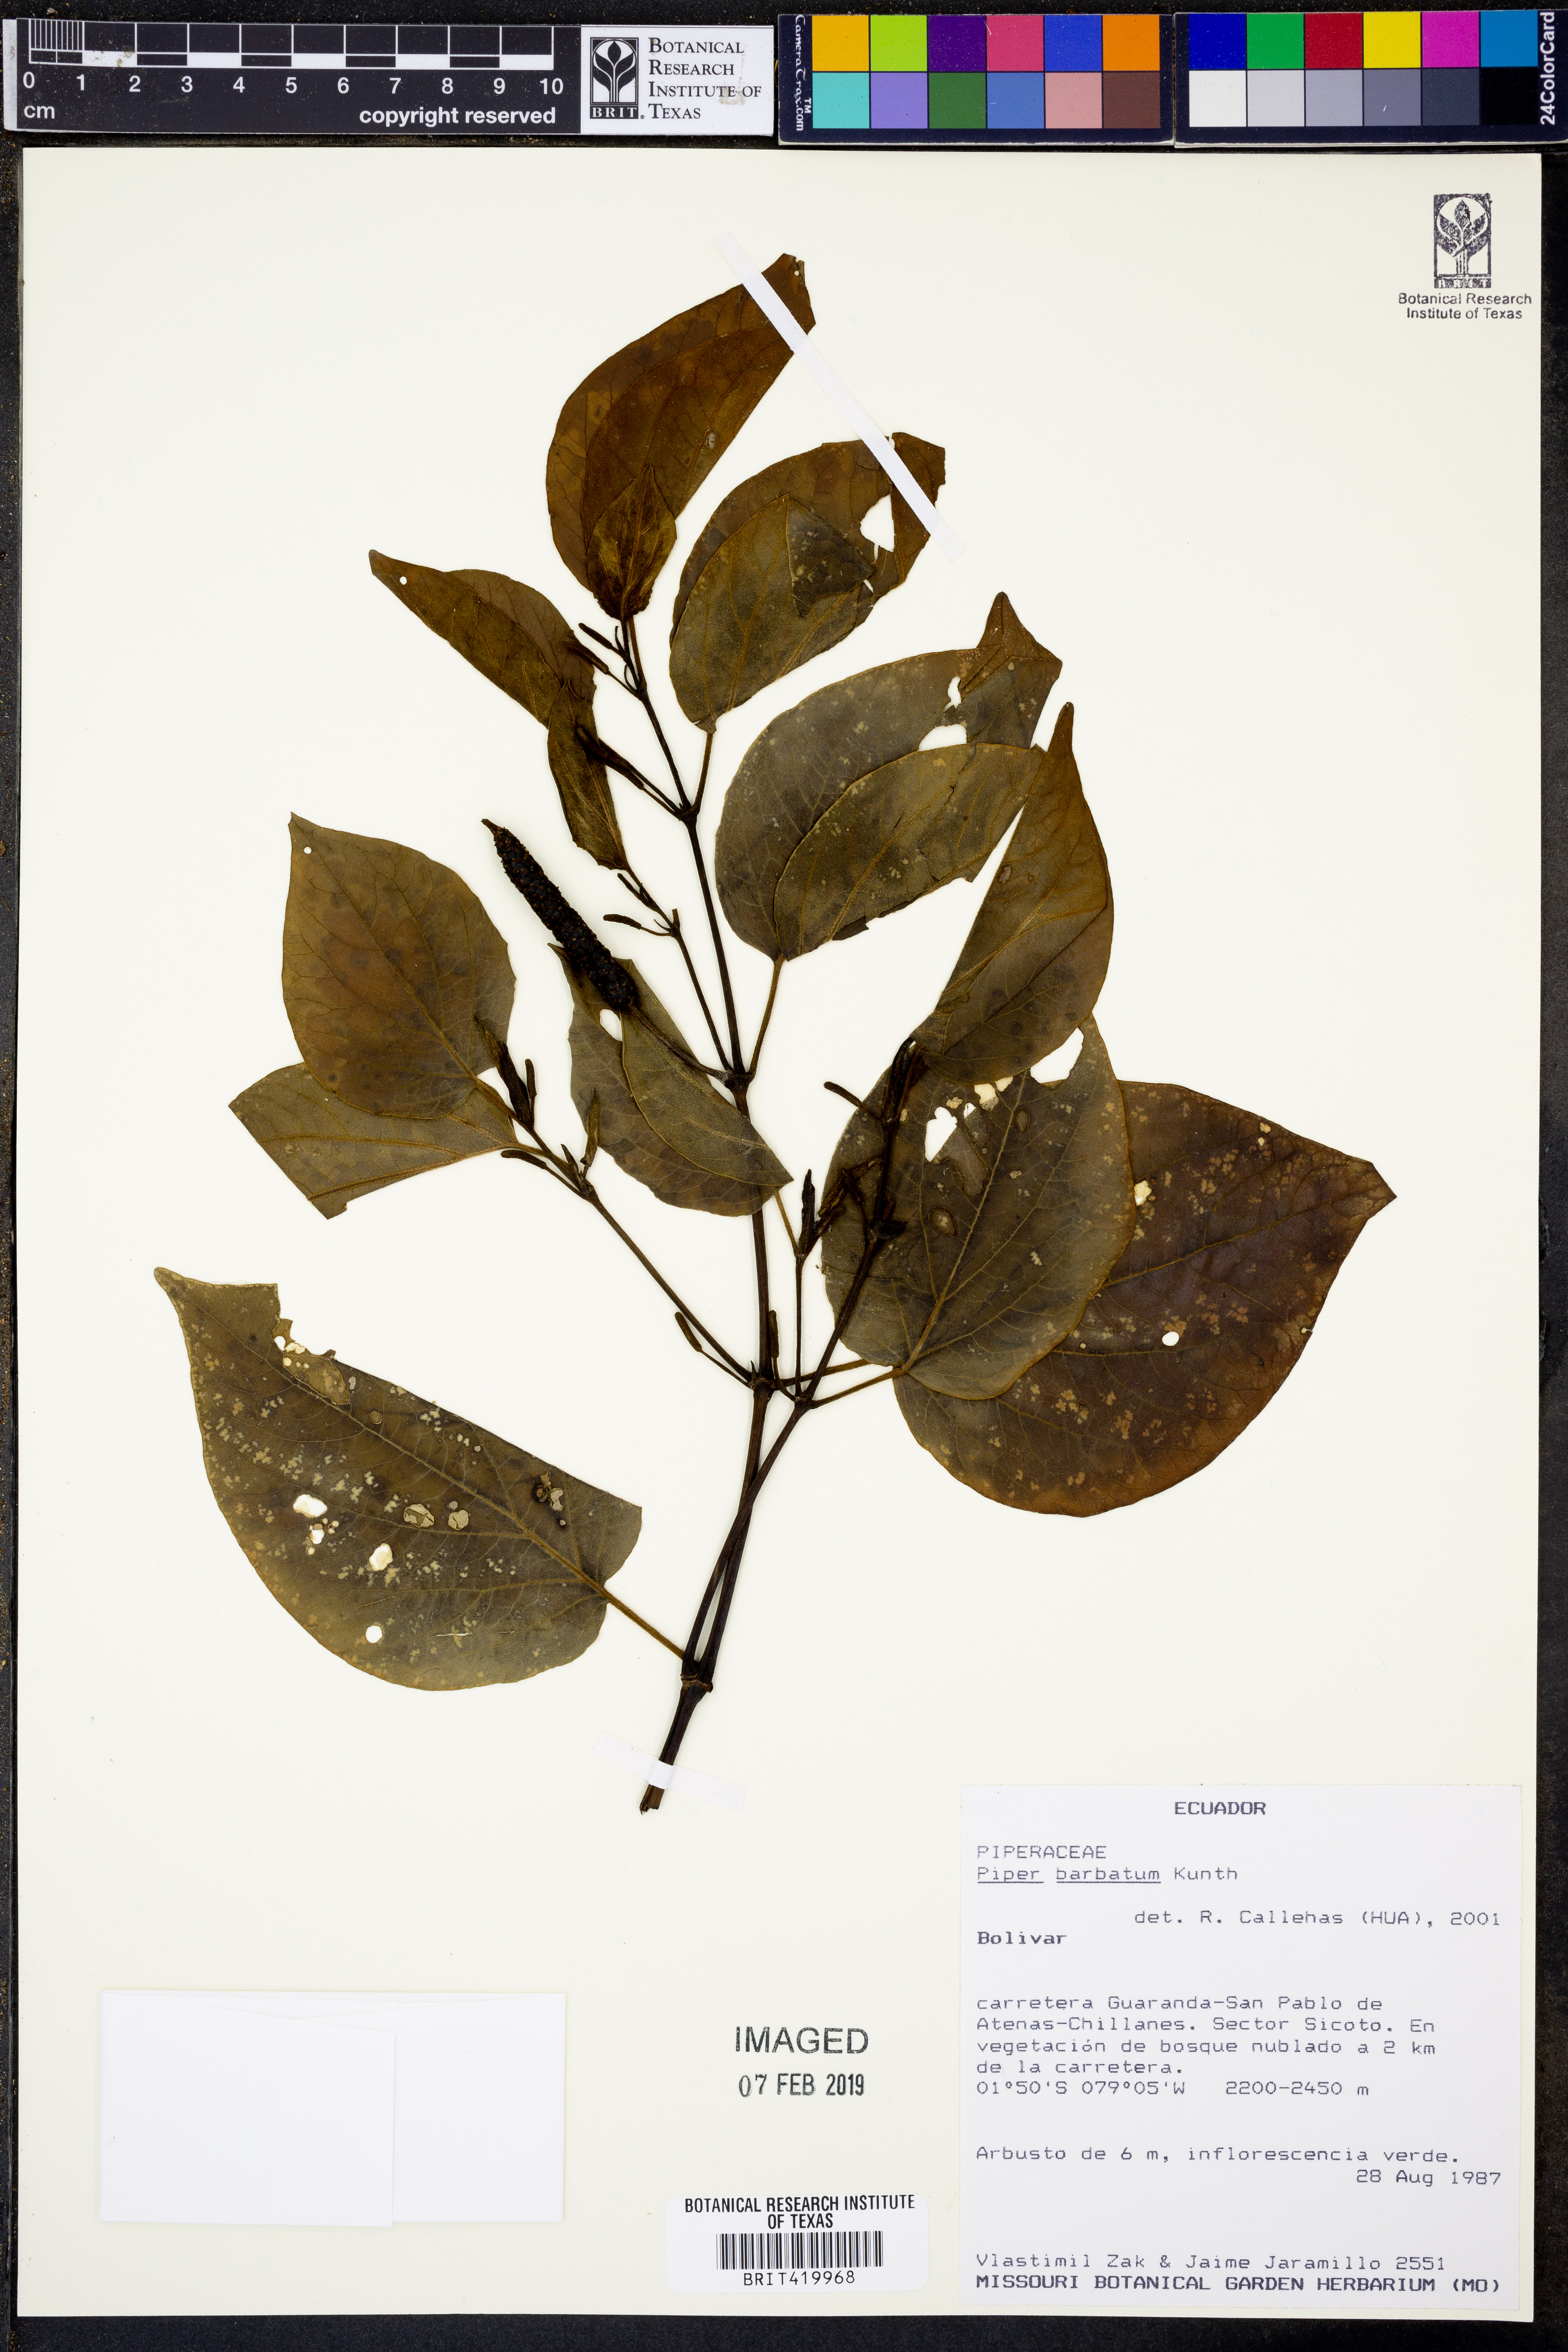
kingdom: Plantae
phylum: Tracheophyta
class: Magnoliopsida
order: Piperales
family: Piperaceae
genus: Piper
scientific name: Piper barbatum
